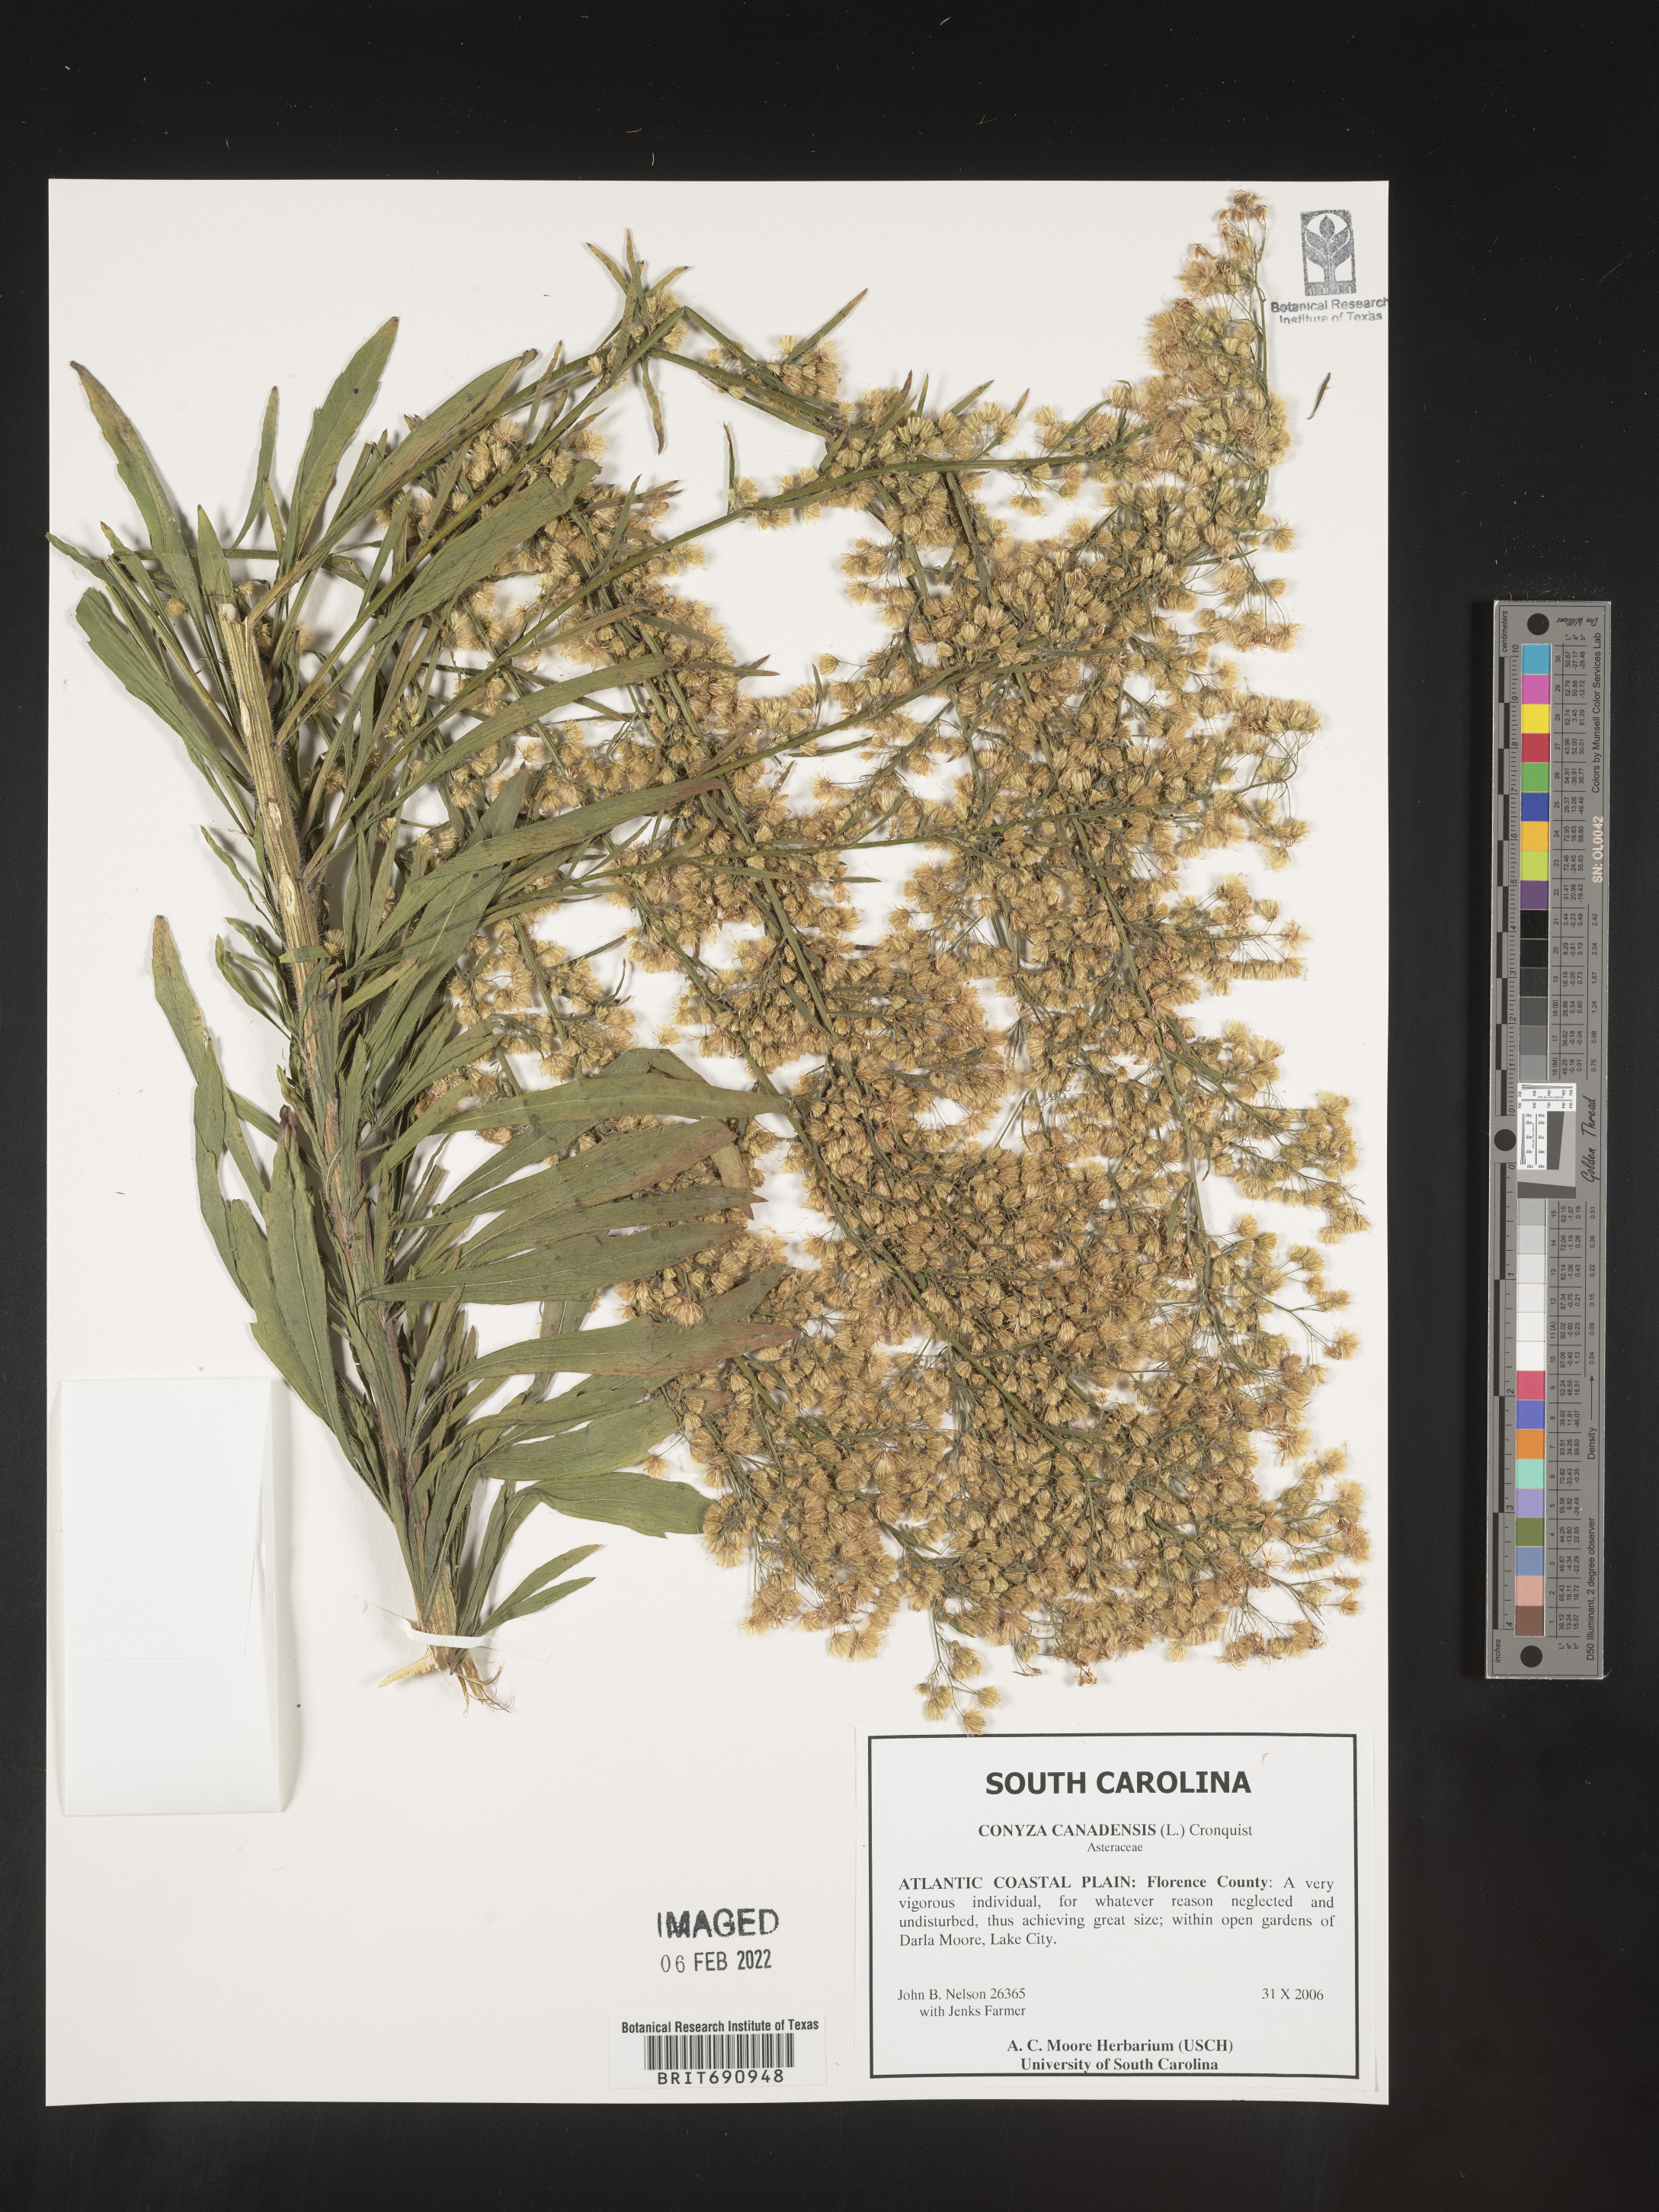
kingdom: Plantae
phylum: Tracheophyta
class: Magnoliopsida
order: Asterales
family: Asteraceae
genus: Erigeron
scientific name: Erigeron canadensis
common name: Canadian fleabane
